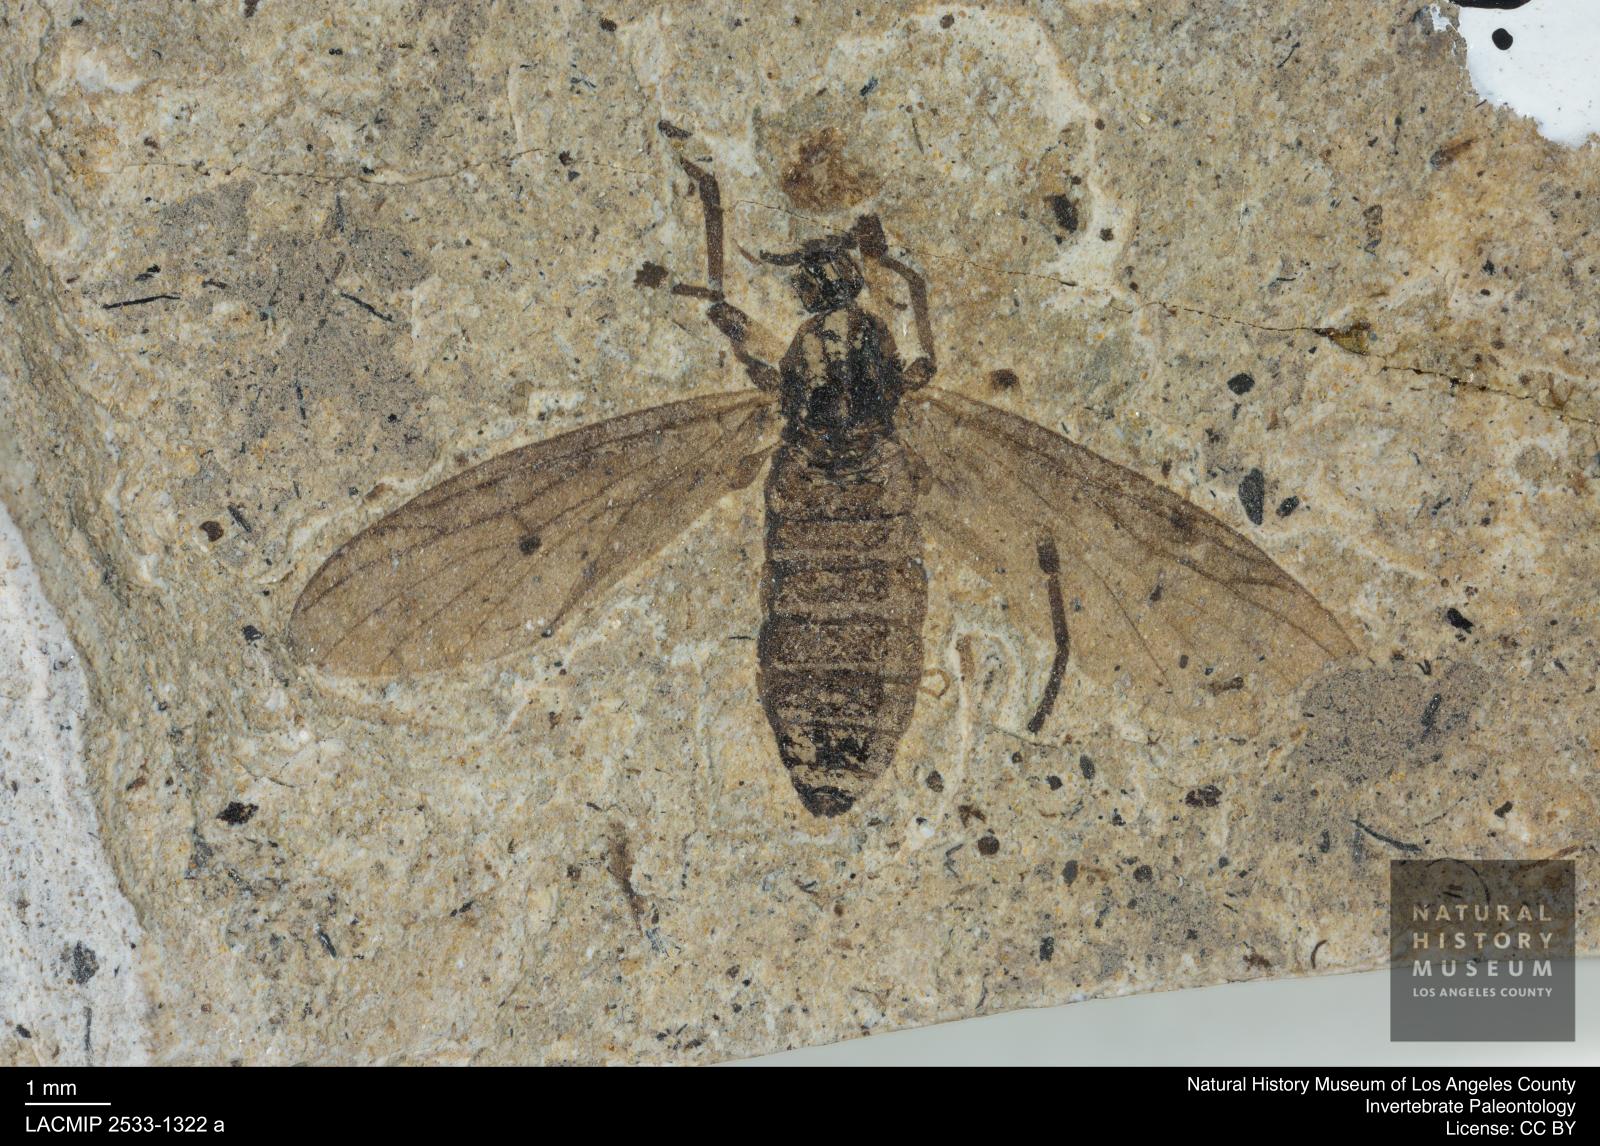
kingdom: Animalia
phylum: Arthropoda
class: Insecta
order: Diptera
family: Bibionidae
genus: Plecia
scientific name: Plecia stygia
